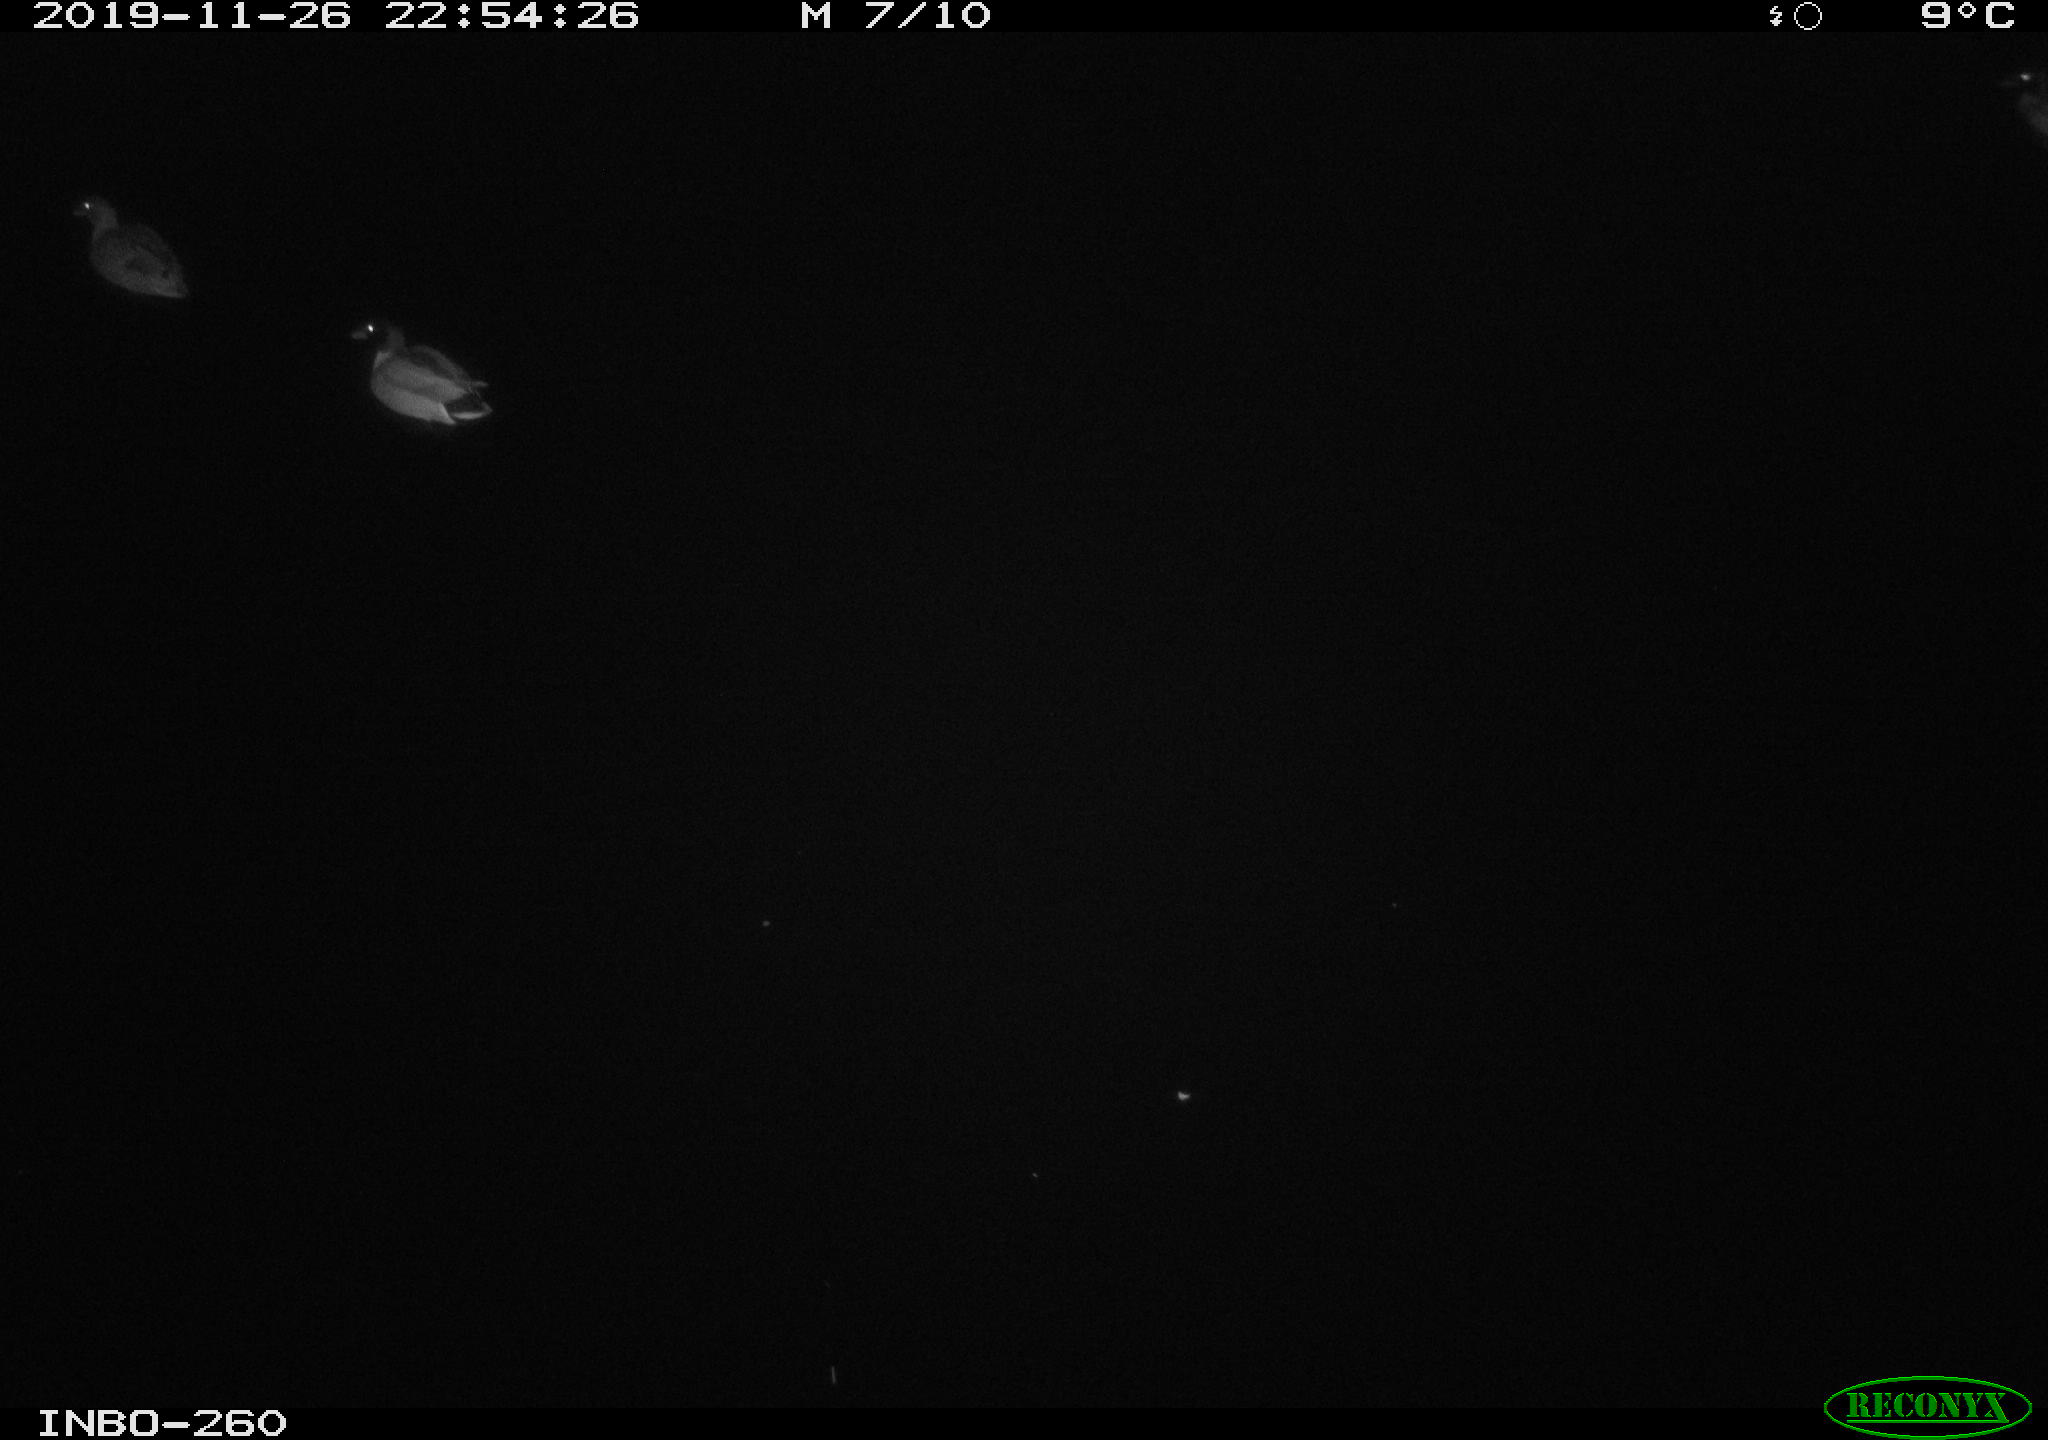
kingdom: Animalia
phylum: Chordata
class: Aves
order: Anseriformes
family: Anatidae
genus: Anas
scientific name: Anas platyrhynchos
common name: Mallard
